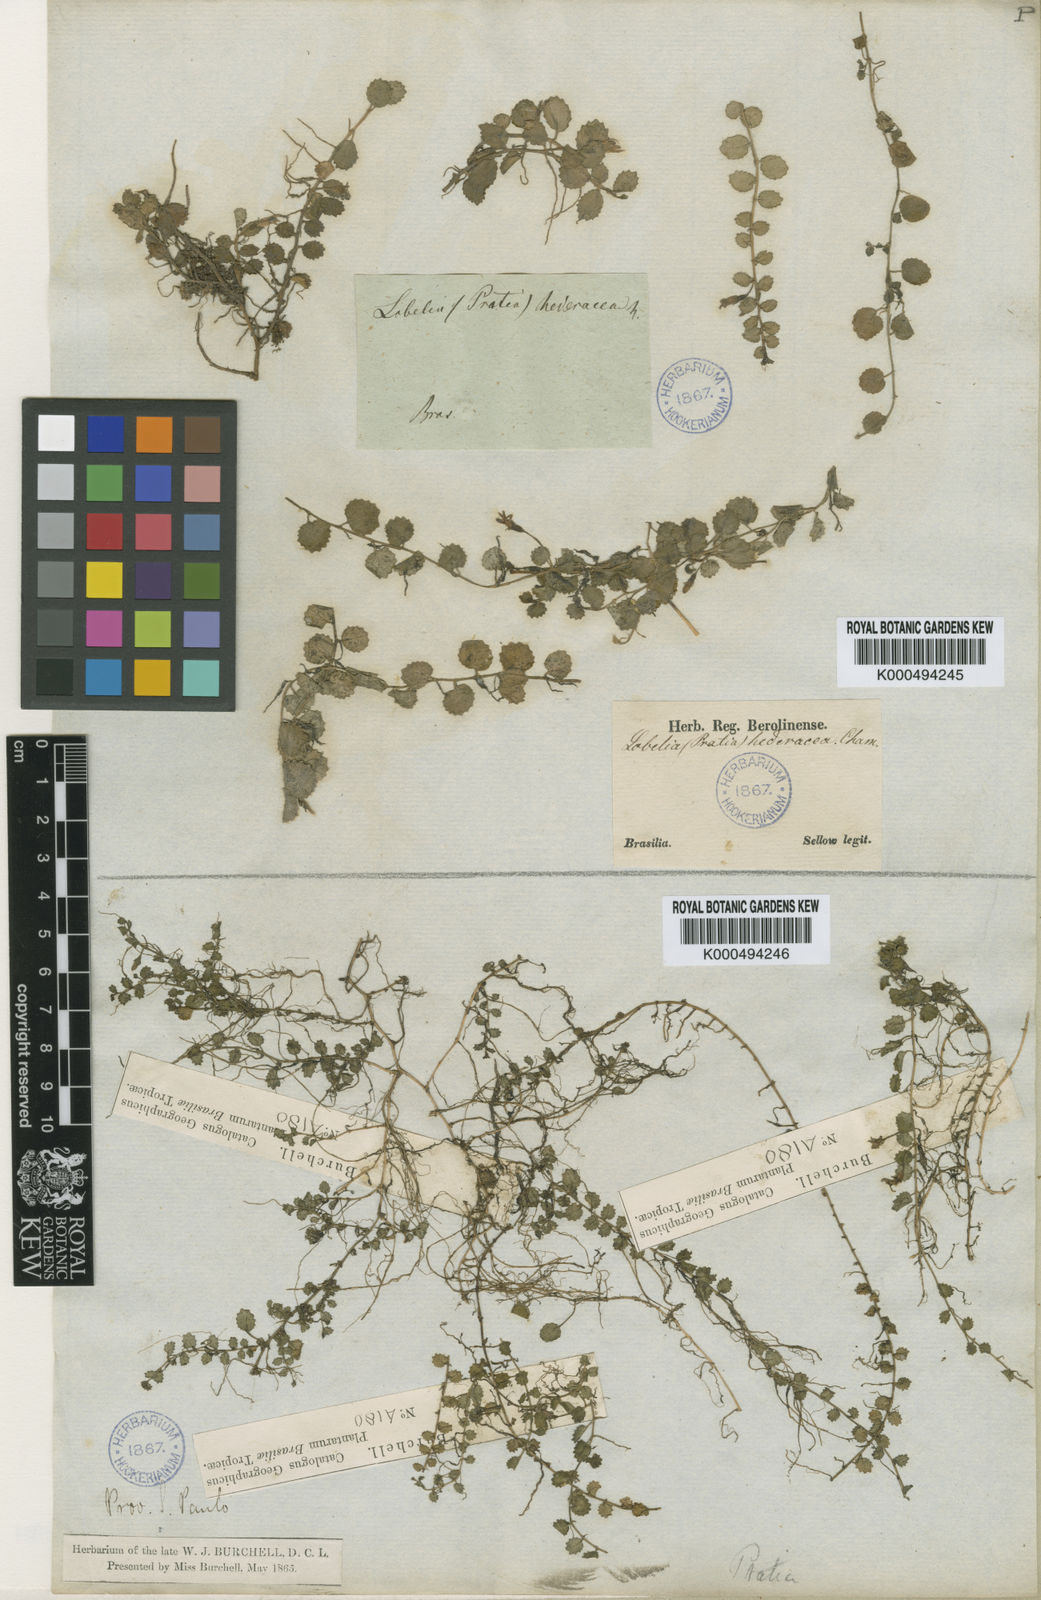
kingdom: Plantae
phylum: Tracheophyta
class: Magnoliopsida
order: Asterales
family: Campanulaceae
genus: Pratia
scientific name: Pratia
